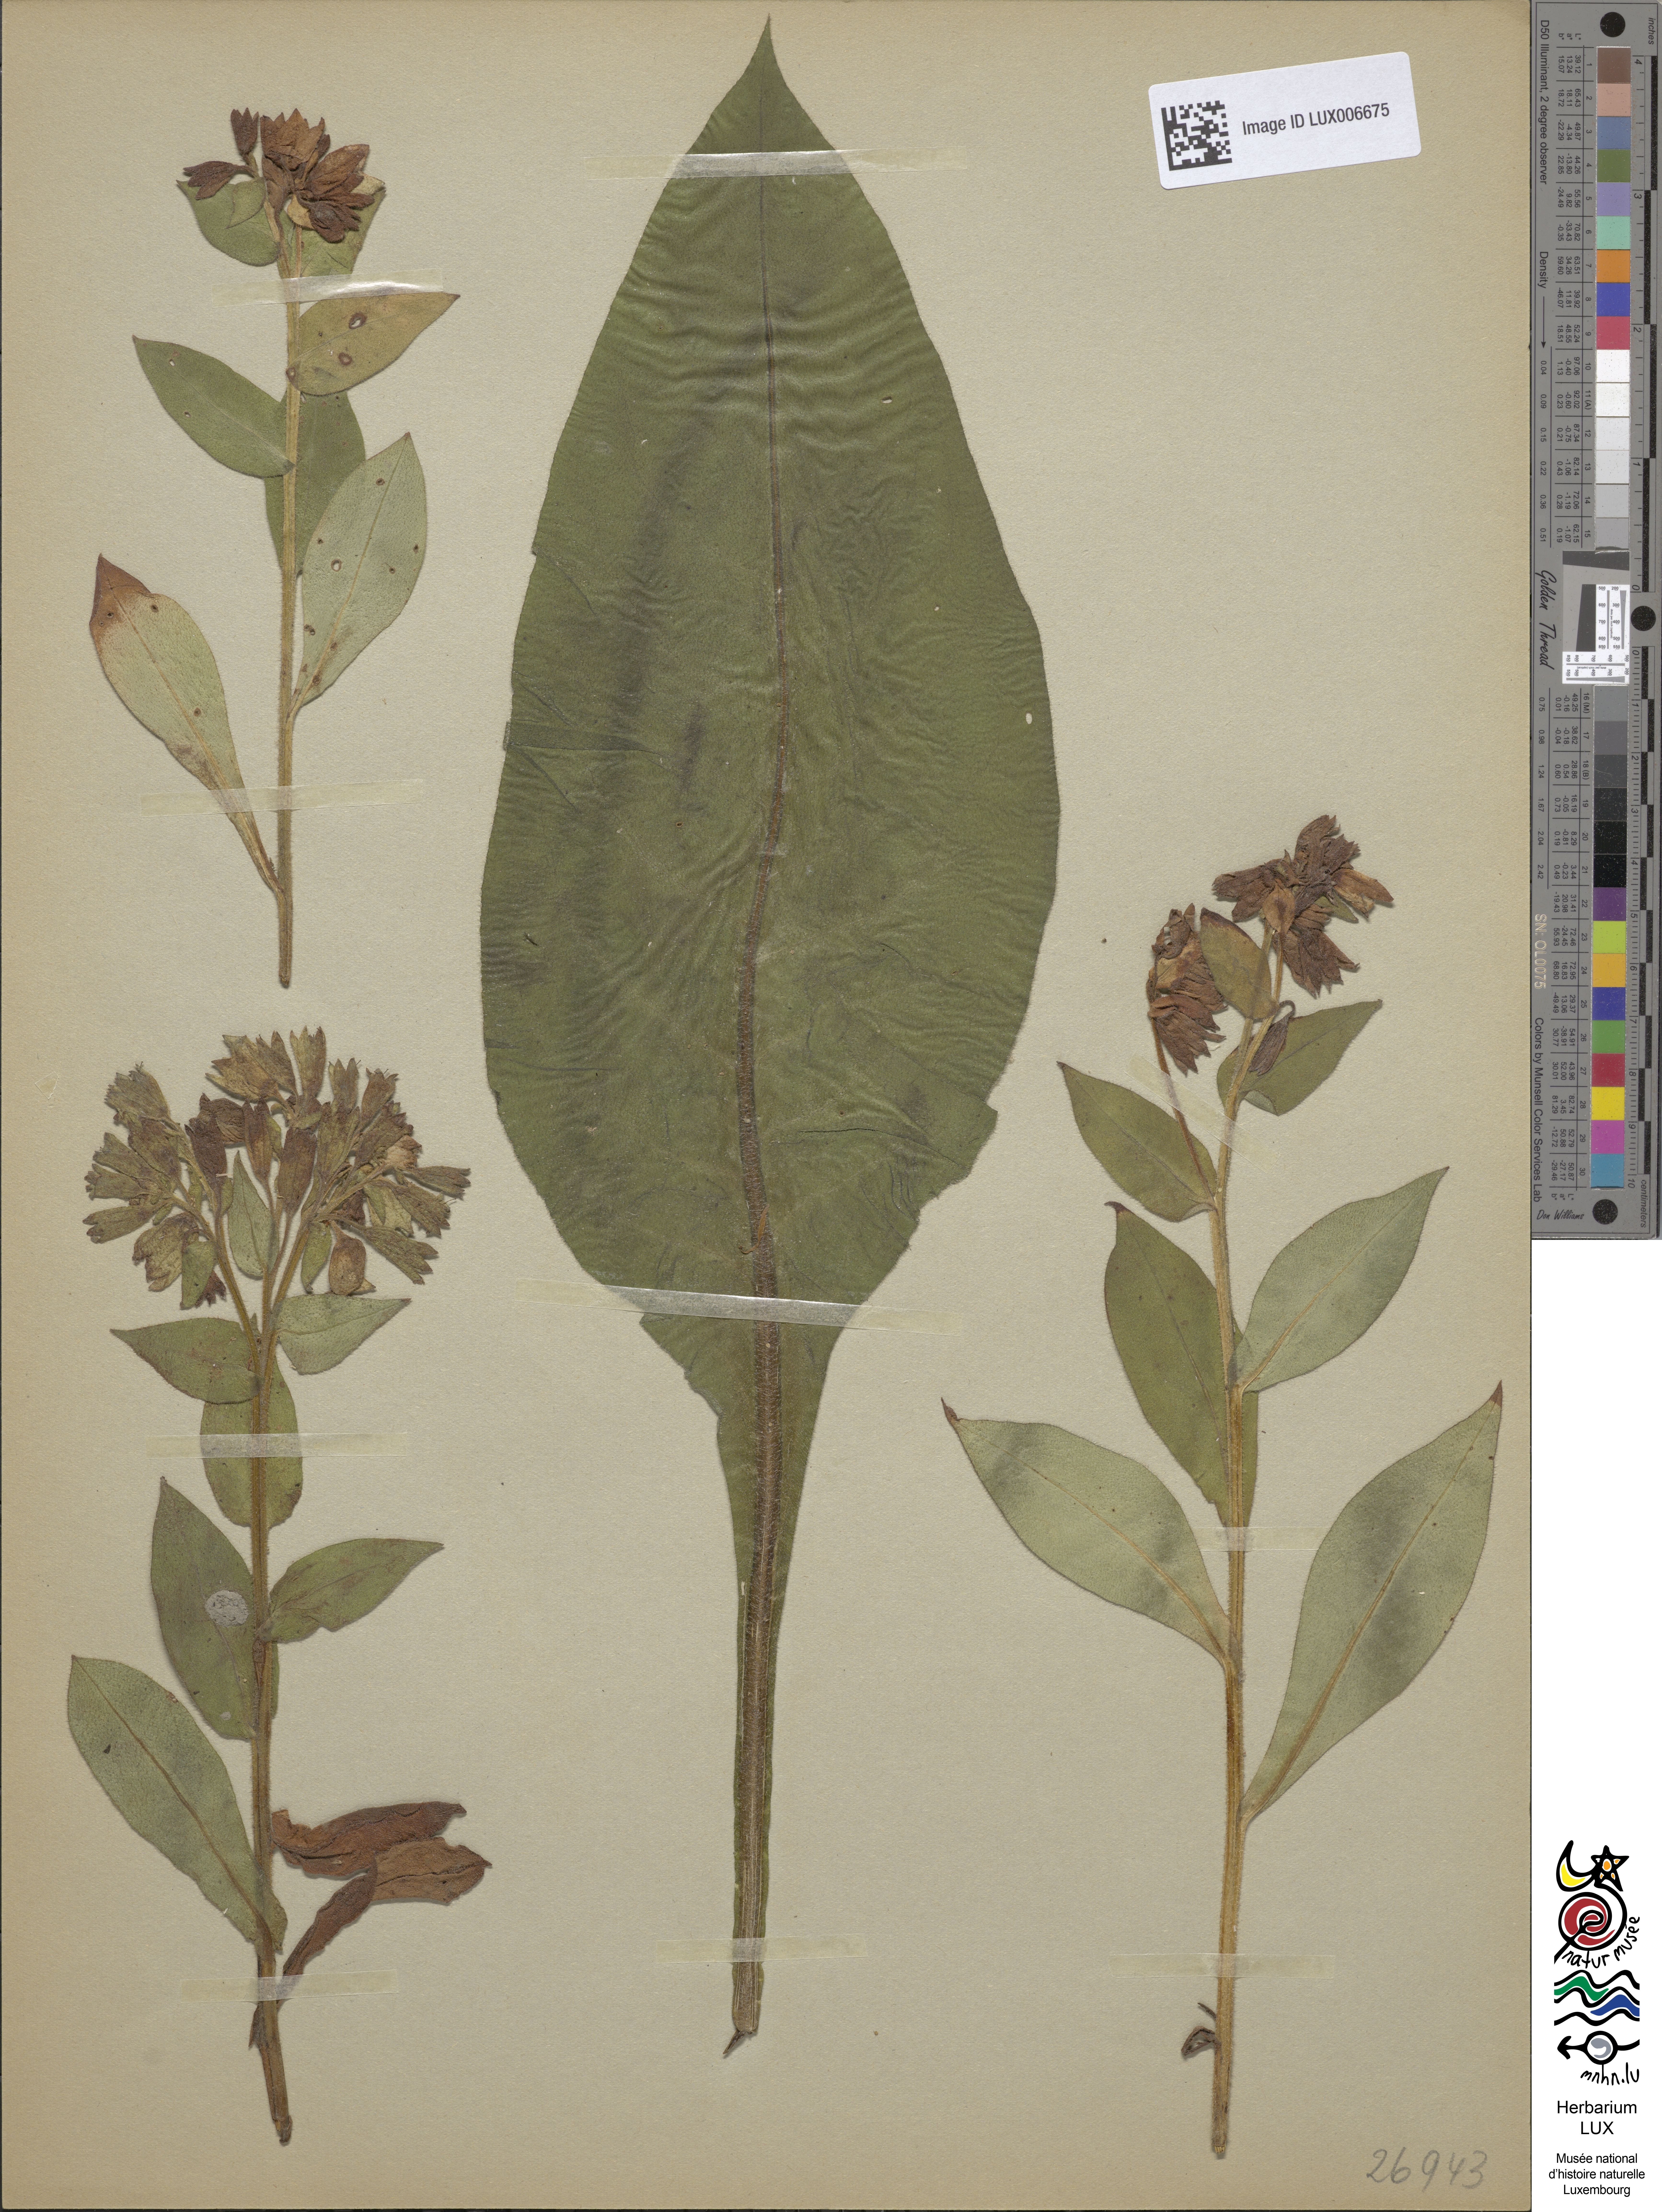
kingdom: Plantae
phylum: Tracheophyta
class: Magnoliopsida
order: Boraginales
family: Boraginaceae
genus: Pulmonaria
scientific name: Pulmonaria montana
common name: Mountain lungwort
